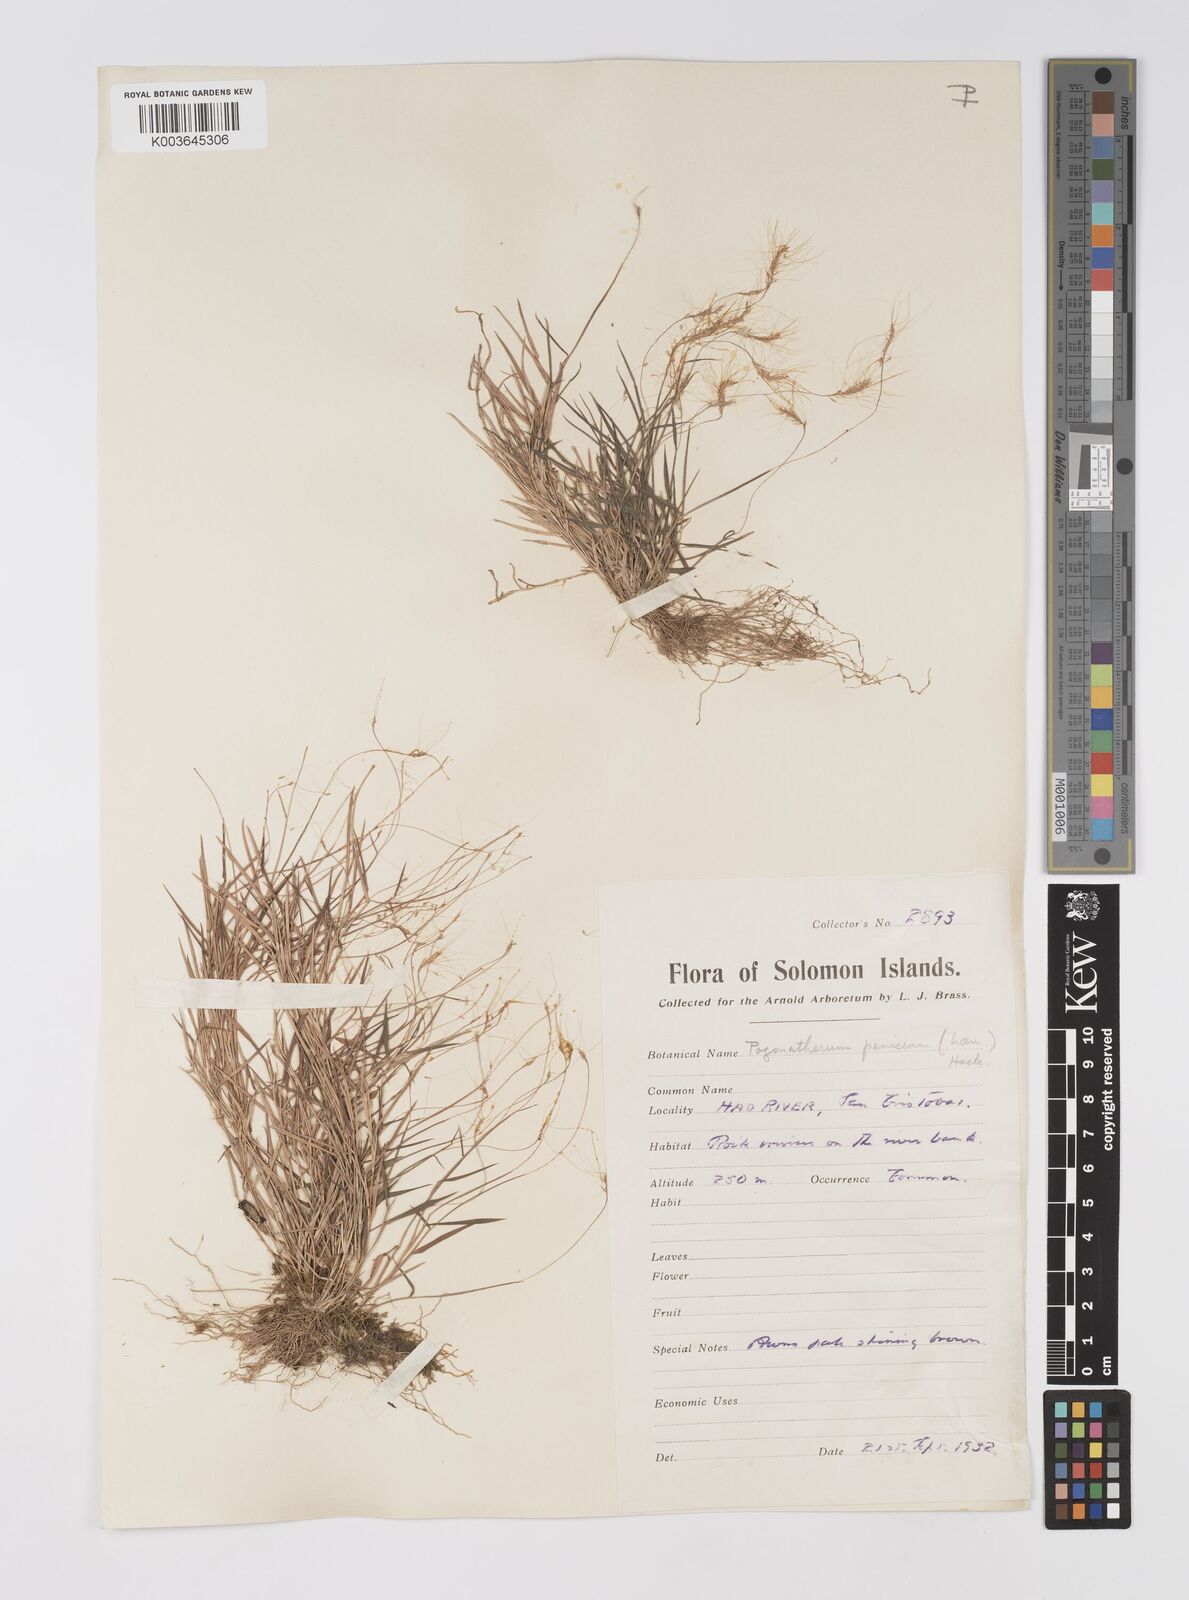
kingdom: Plantae
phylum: Tracheophyta
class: Liliopsida
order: Poales
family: Poaceae
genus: Pogonatherum
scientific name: Pogonatherum crinitum
